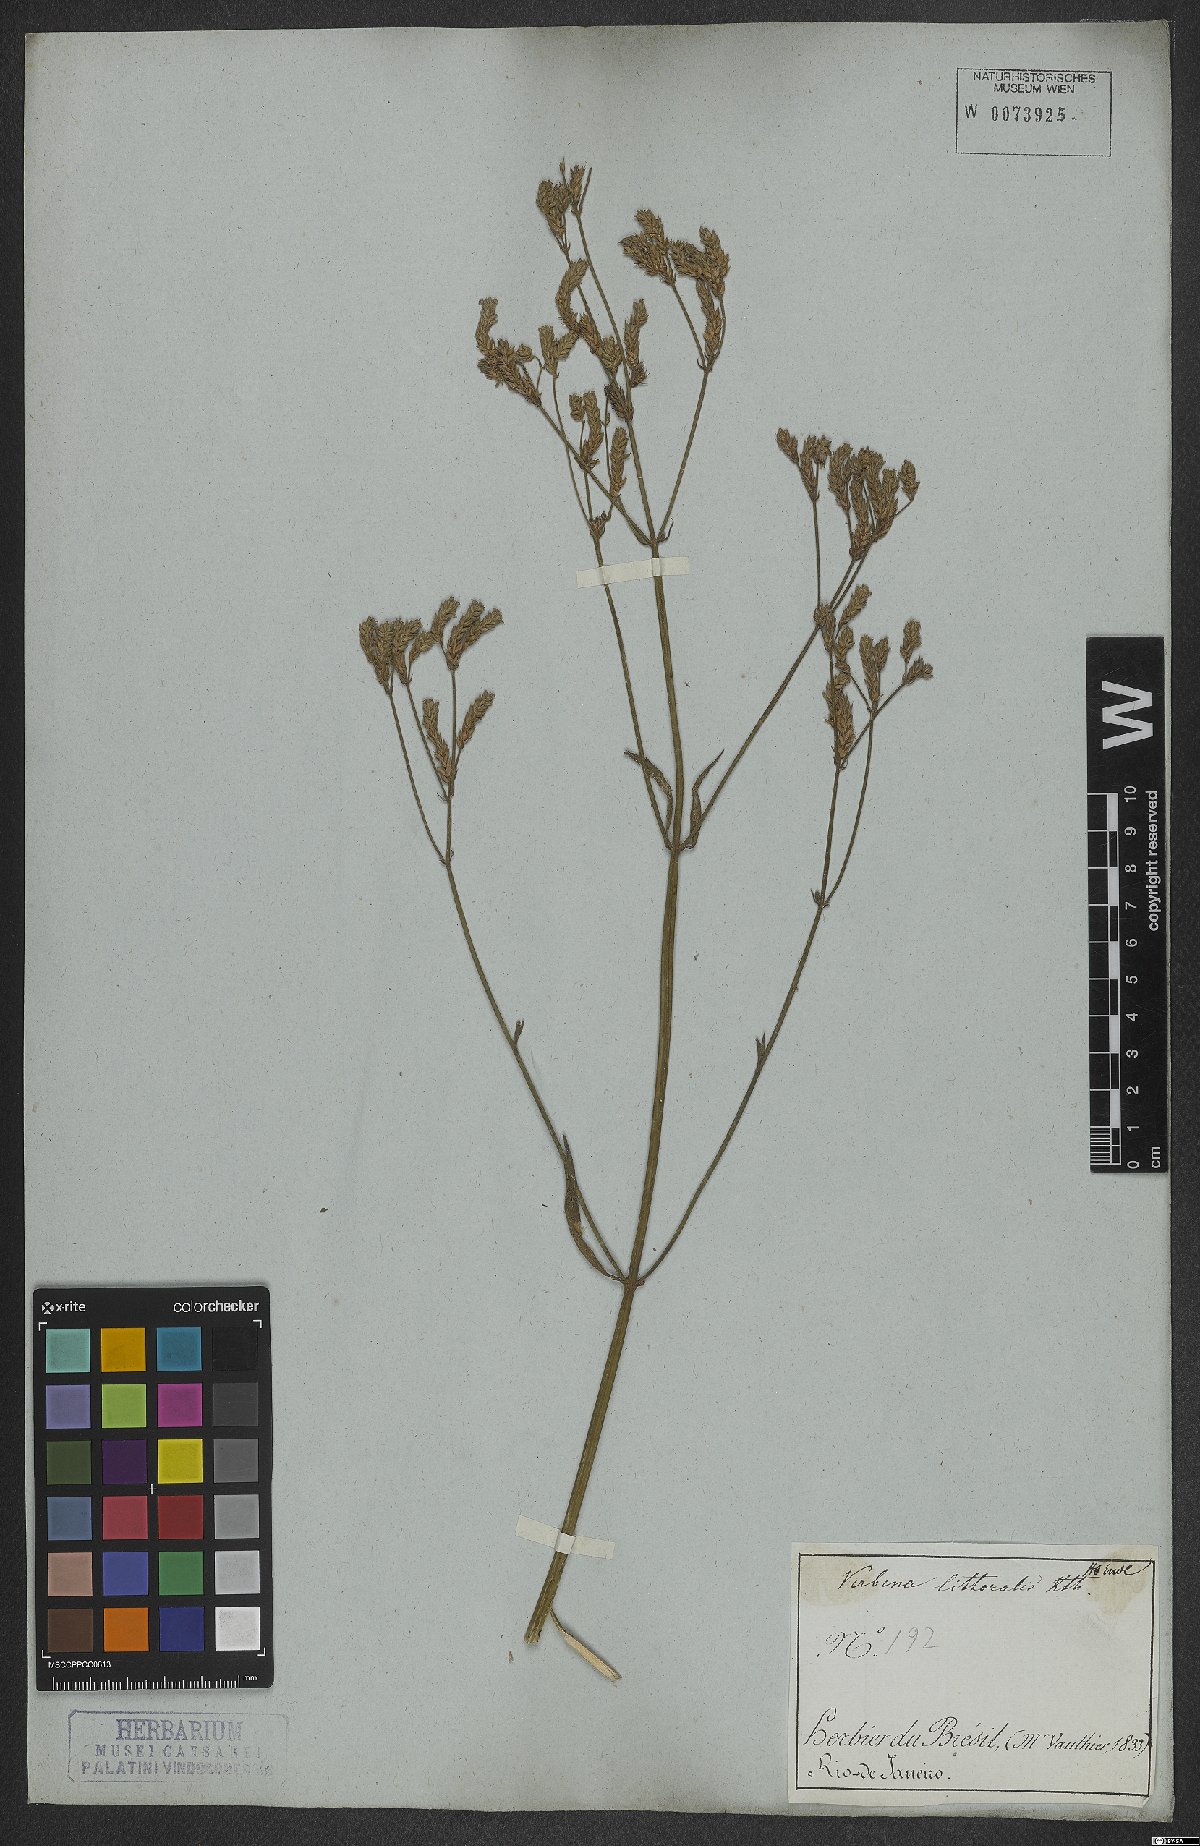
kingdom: Plantae
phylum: Tracheophyta
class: Magnoliopsida
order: Lamiales
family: Verbenaceae
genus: Verbena
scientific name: Verbena litoralis
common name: Seashore vervain
